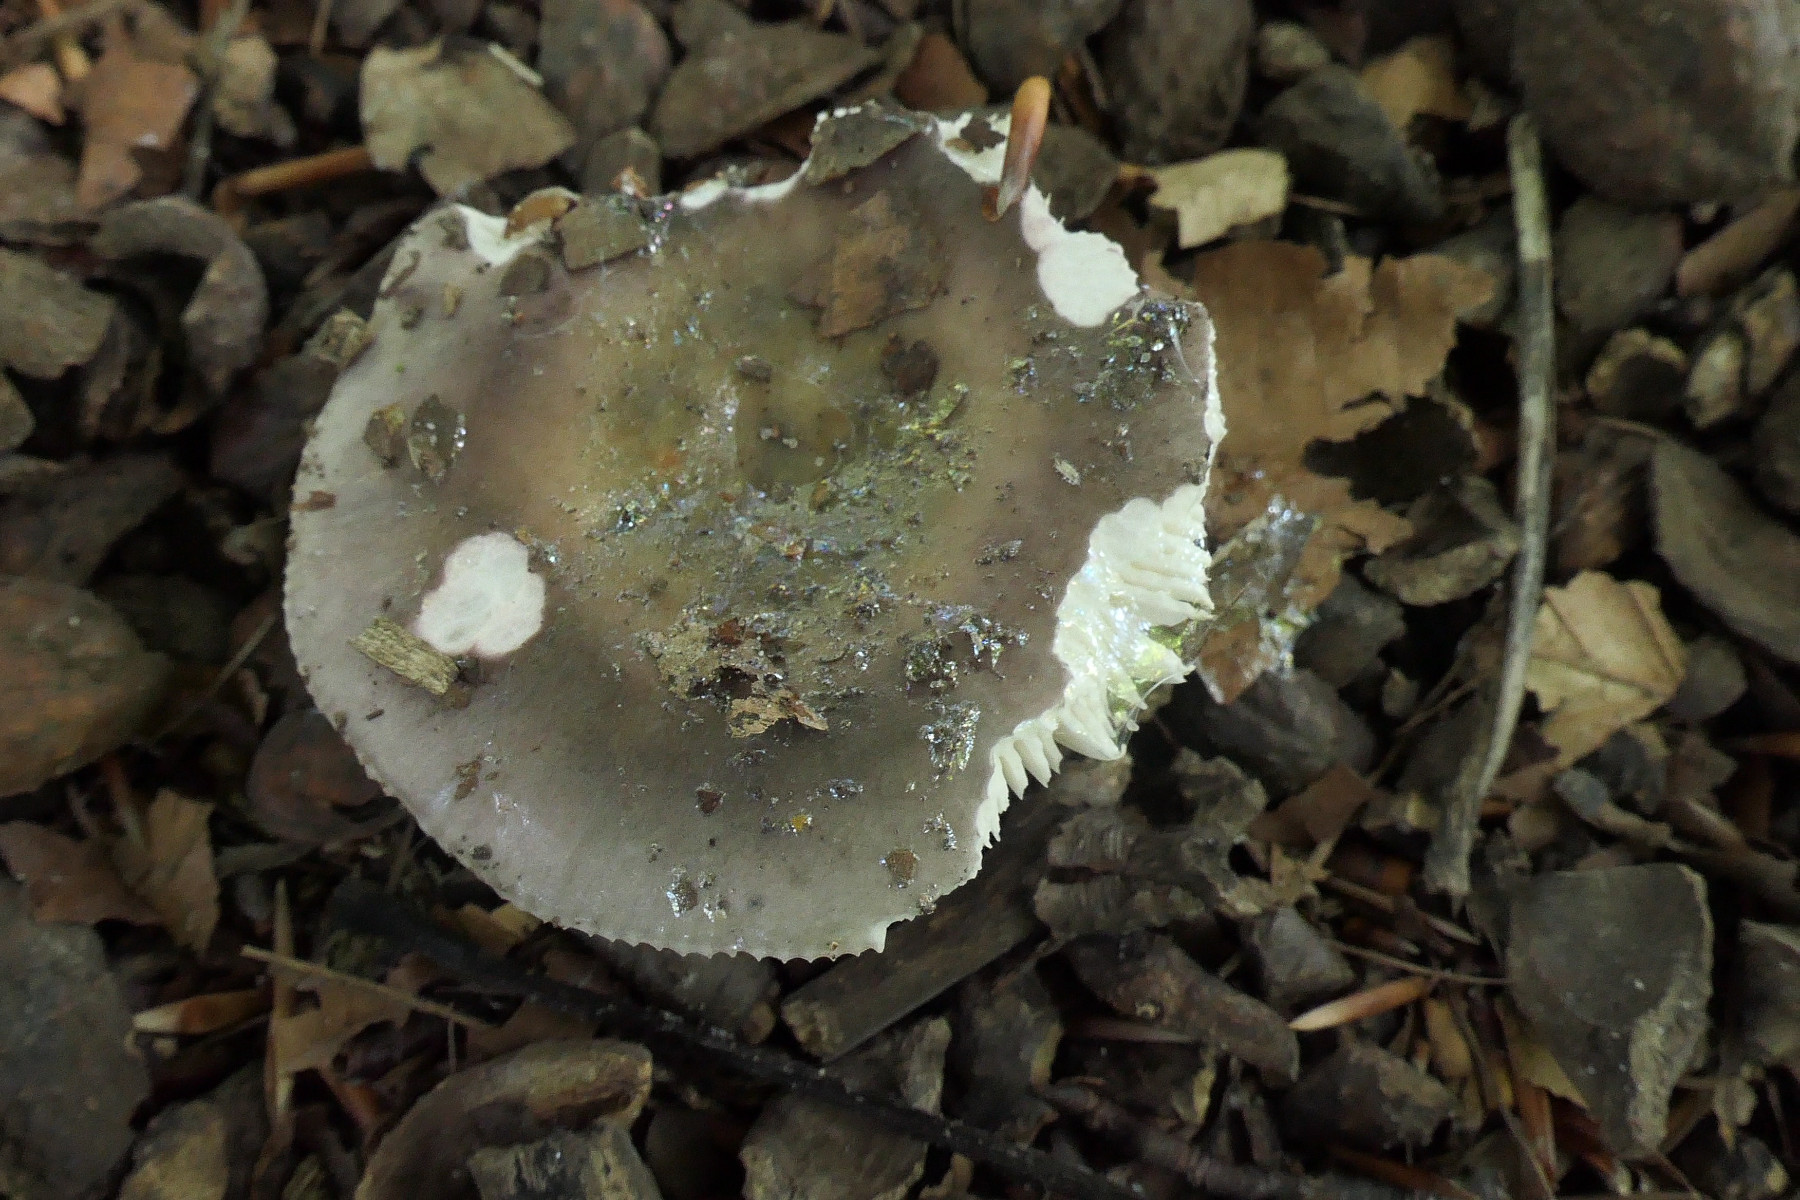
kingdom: Fungi
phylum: Basidiomycota
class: Agaricomycetes
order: Russulales
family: Russulaceae
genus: Russula
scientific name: Russula ionochlora
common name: violetgrøn skørhat
